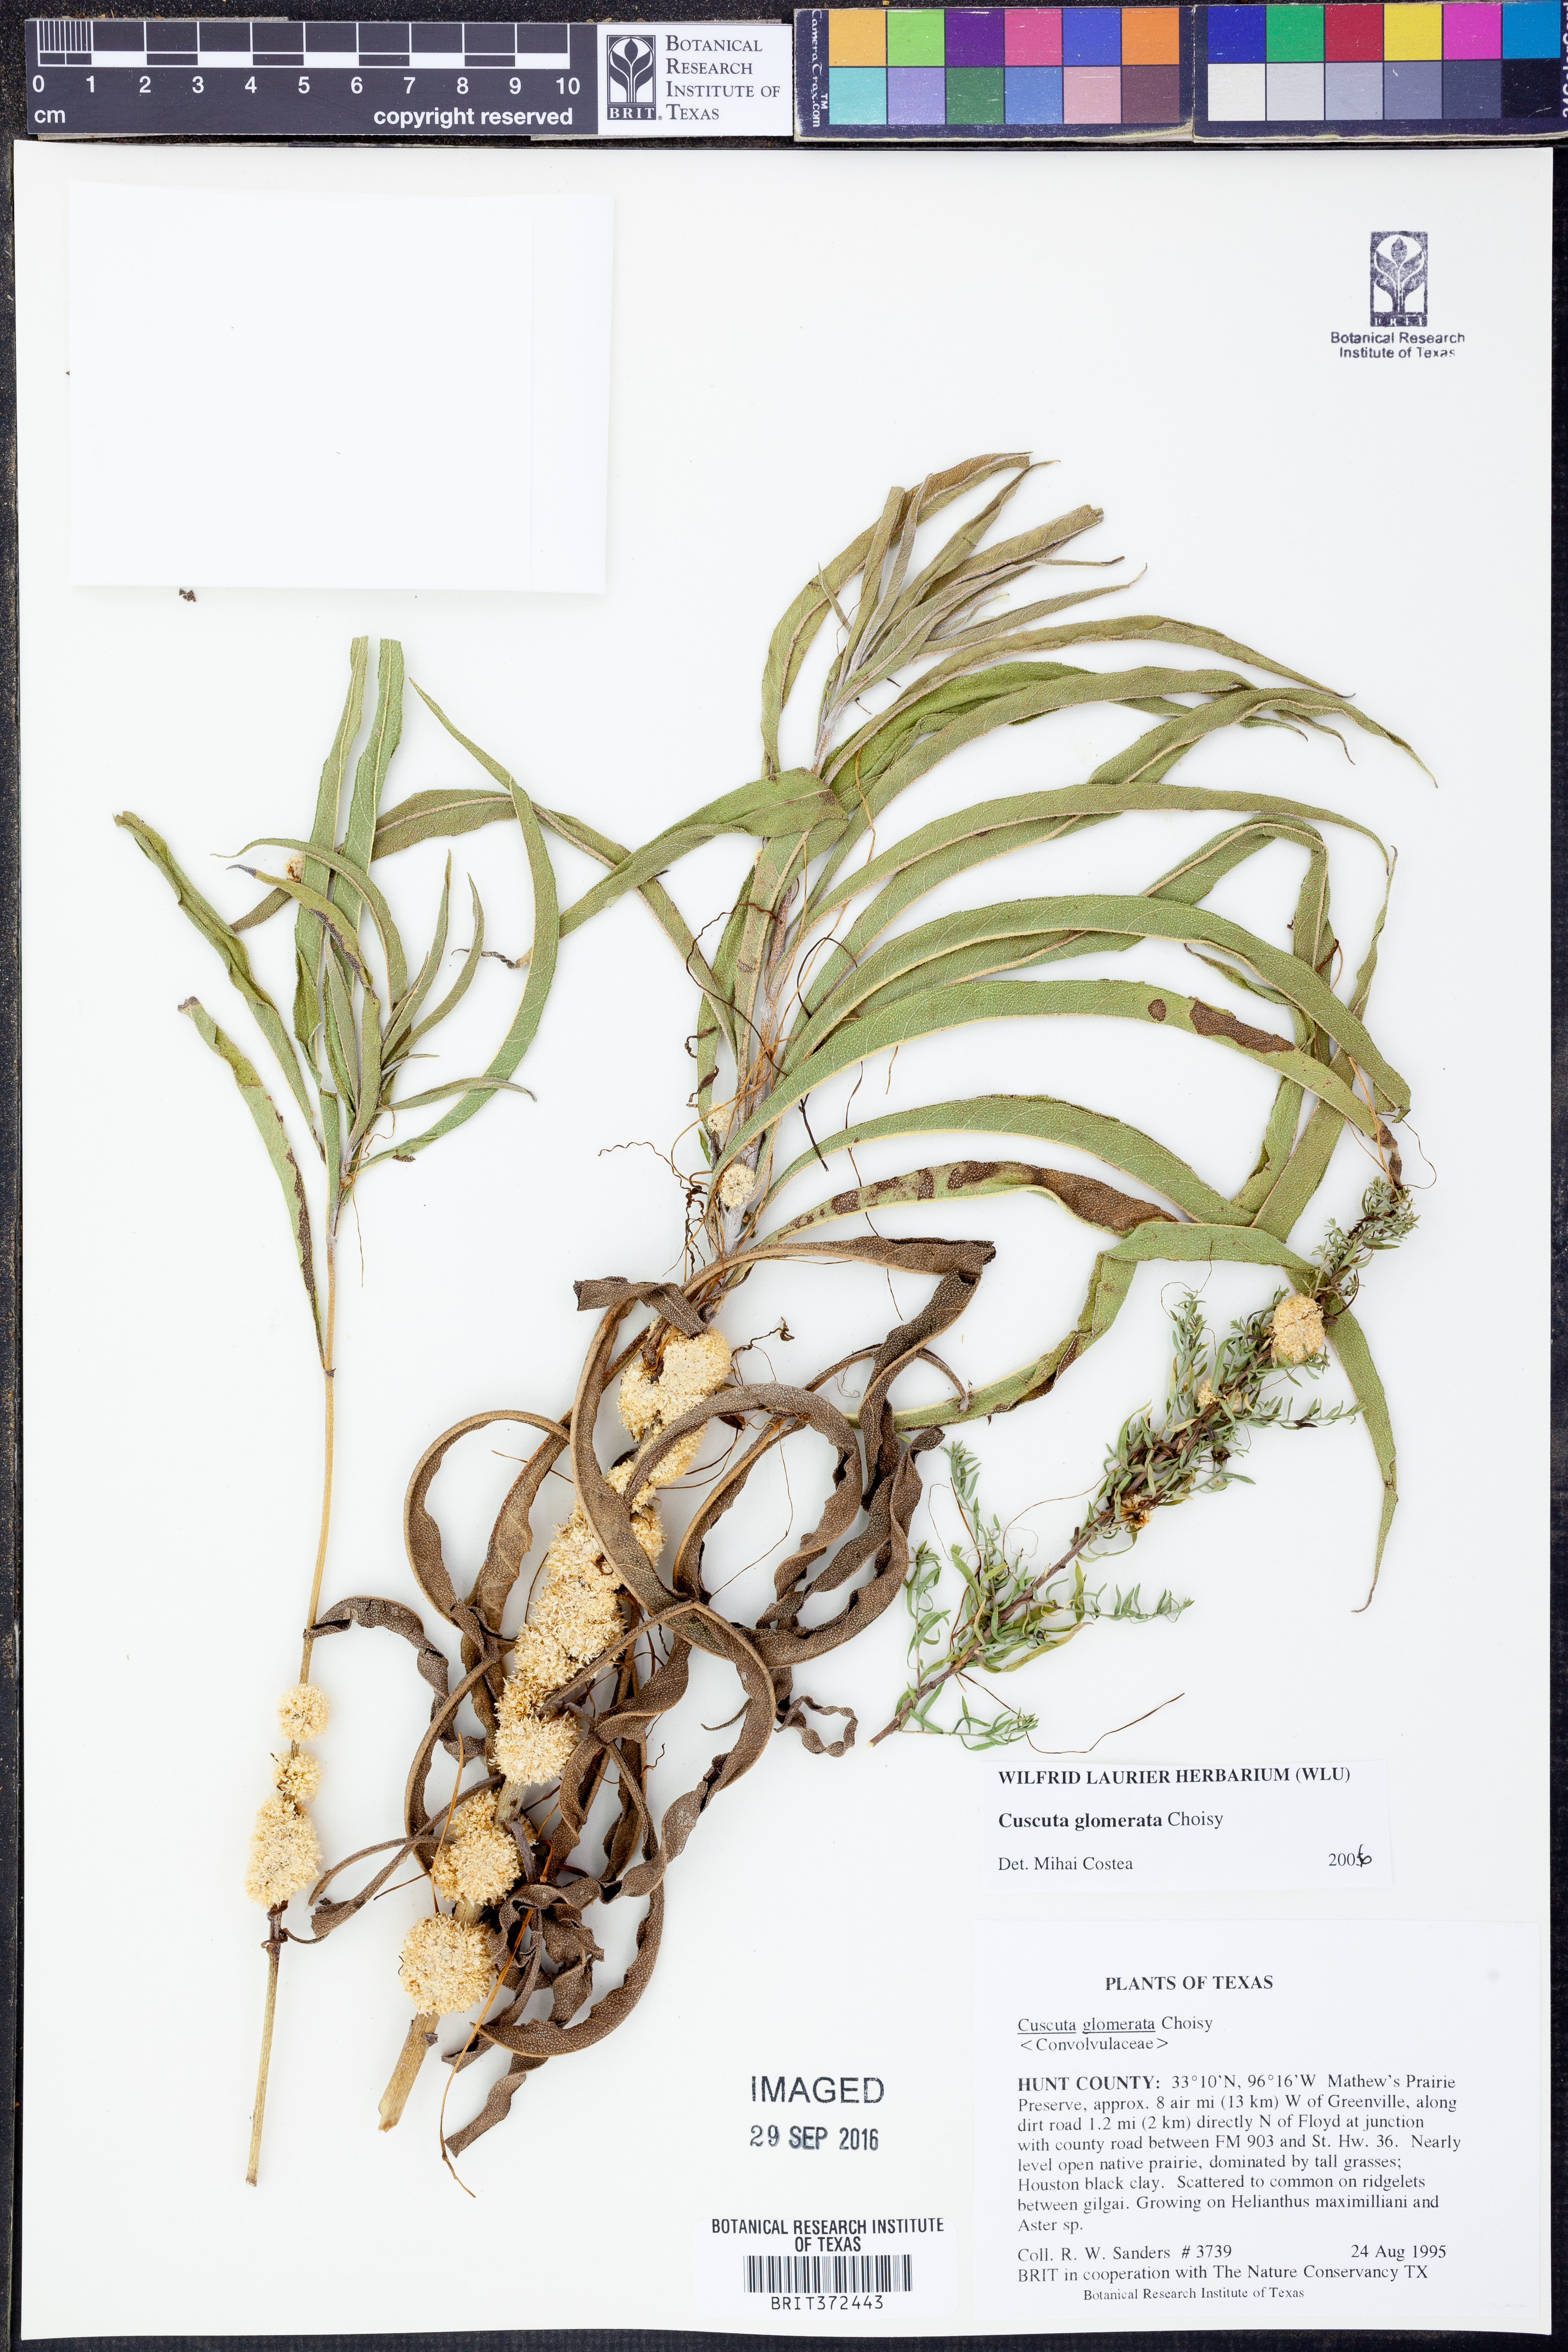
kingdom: Plantae
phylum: Tracheophyta
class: Magnoliopsida
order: Solanales
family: Convolvulaceae
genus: Cuscuta
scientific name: Cuscuta glomerata
